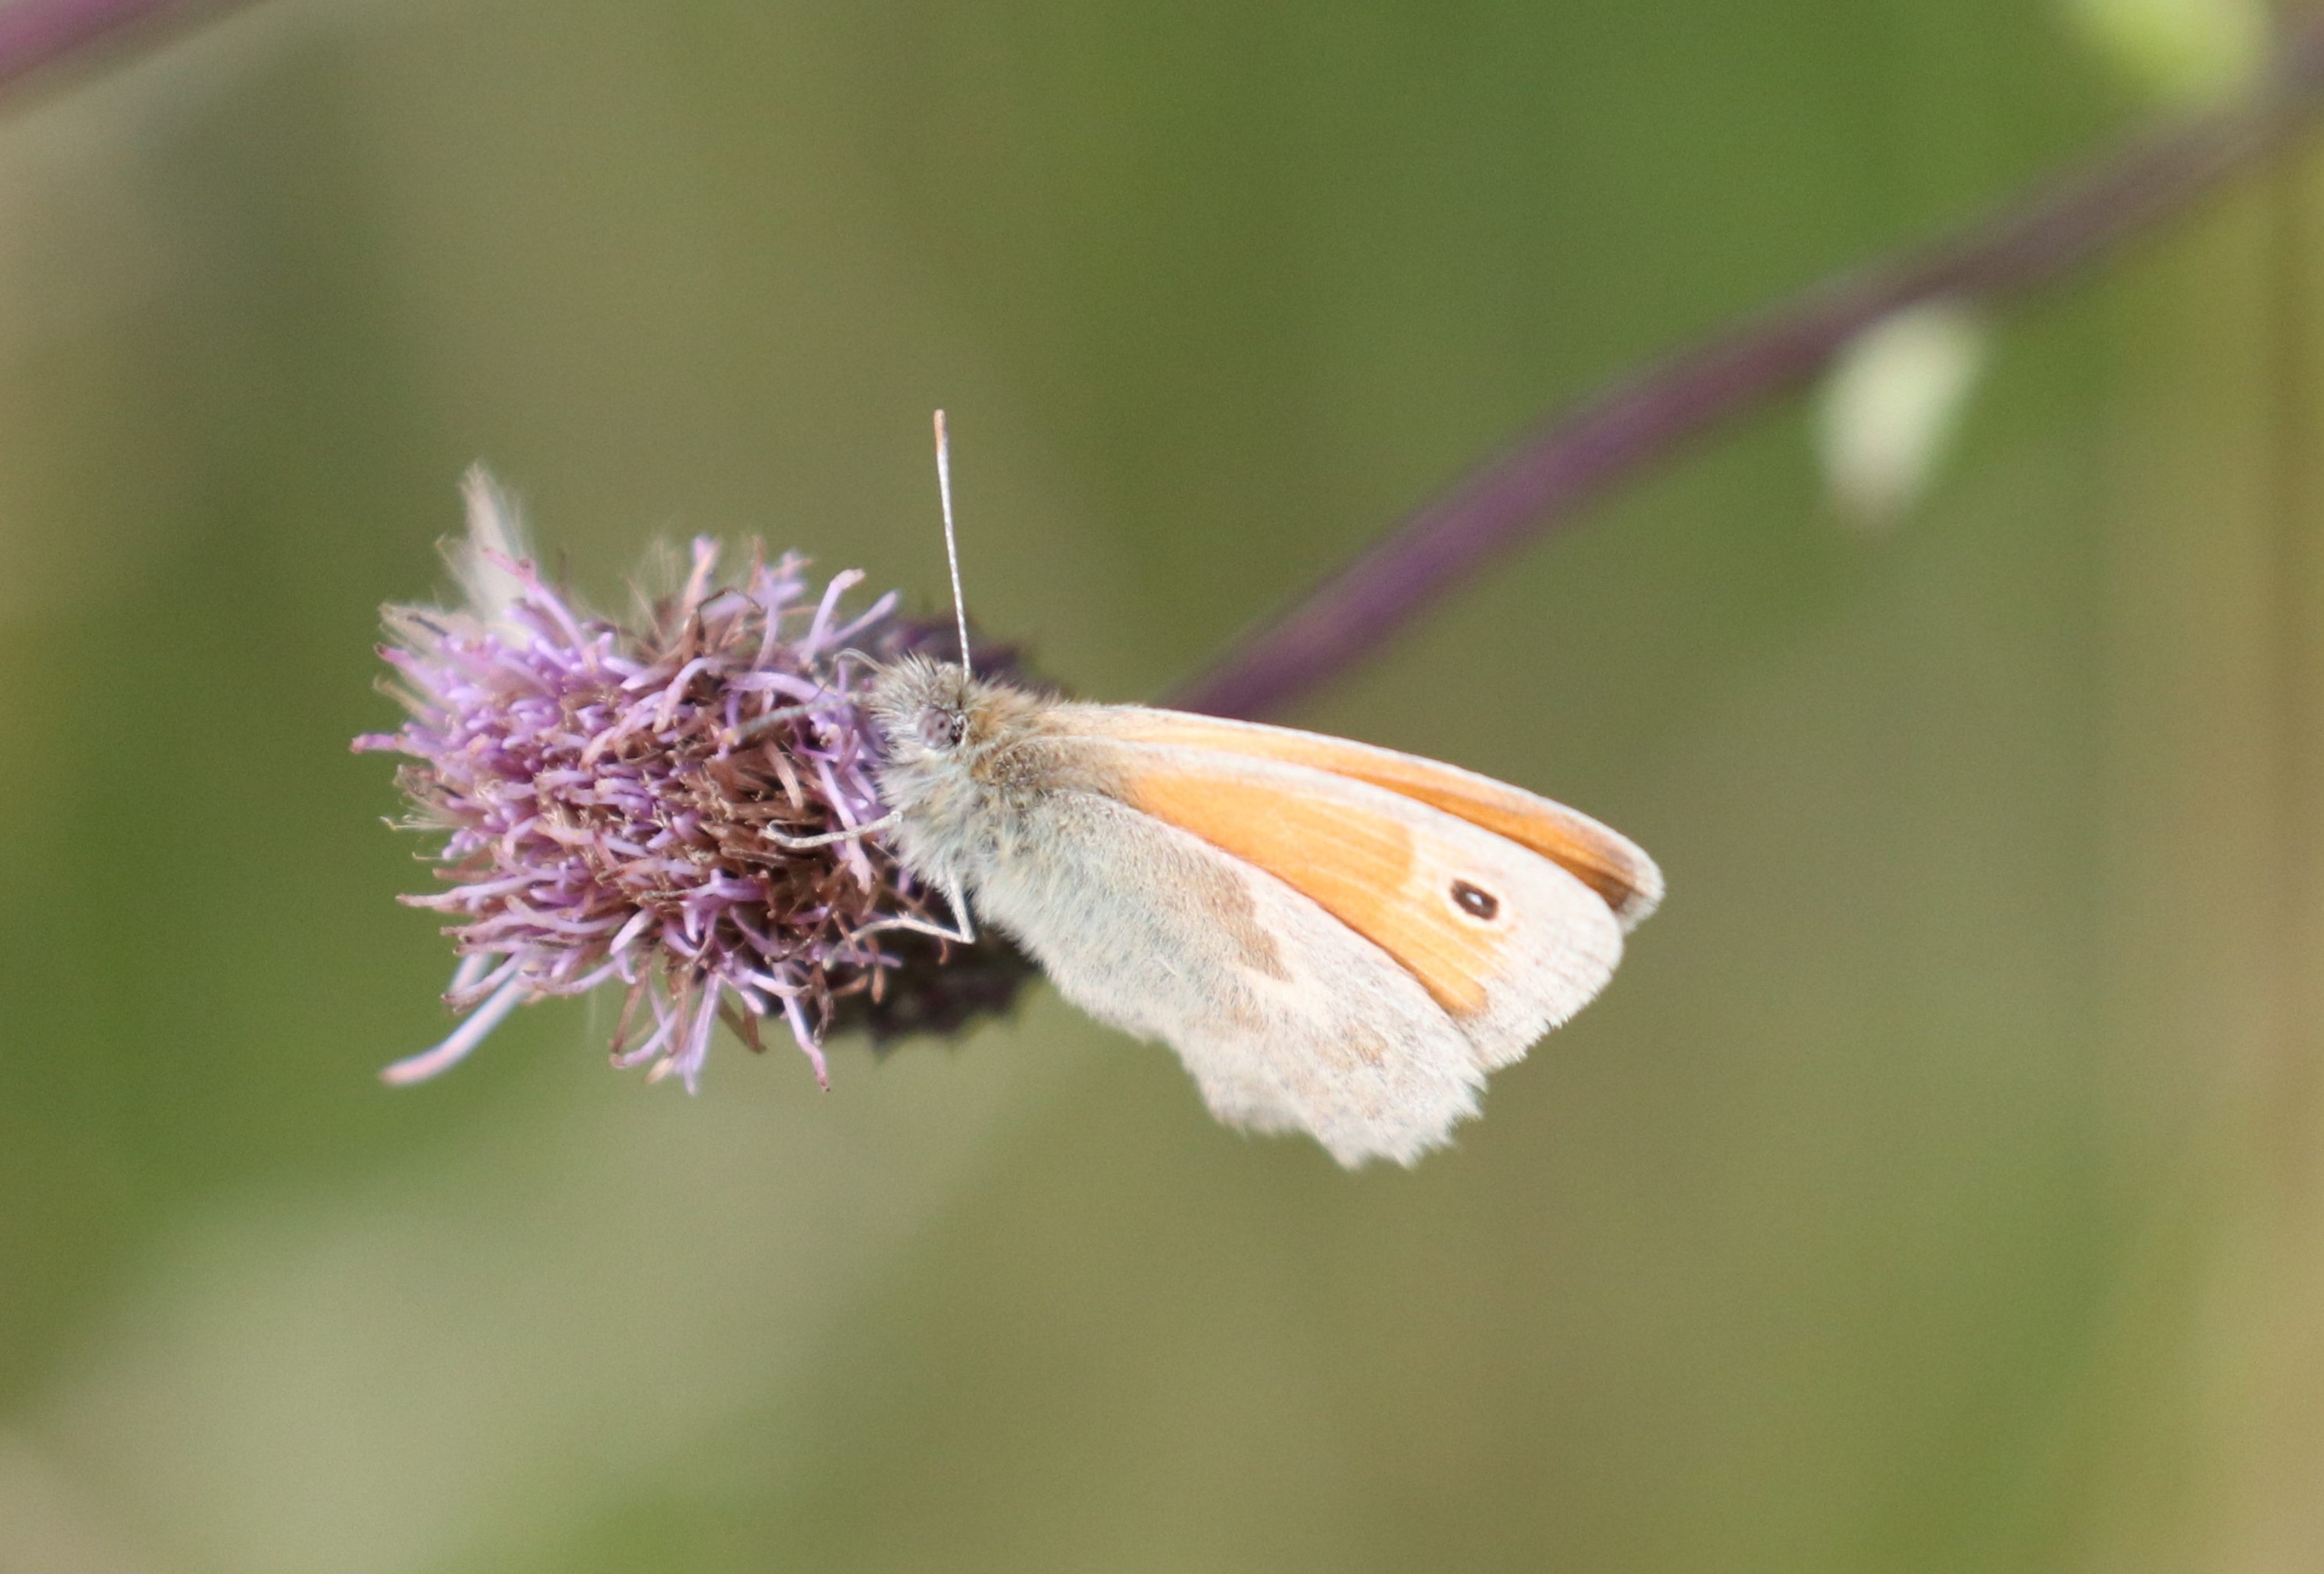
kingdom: Animalia
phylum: Arthropoda
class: Insecta
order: Lepidoptera
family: Nymphalidae
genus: Coenonympha
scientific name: Coenonympha pamphilus
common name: Okkergul randøje
